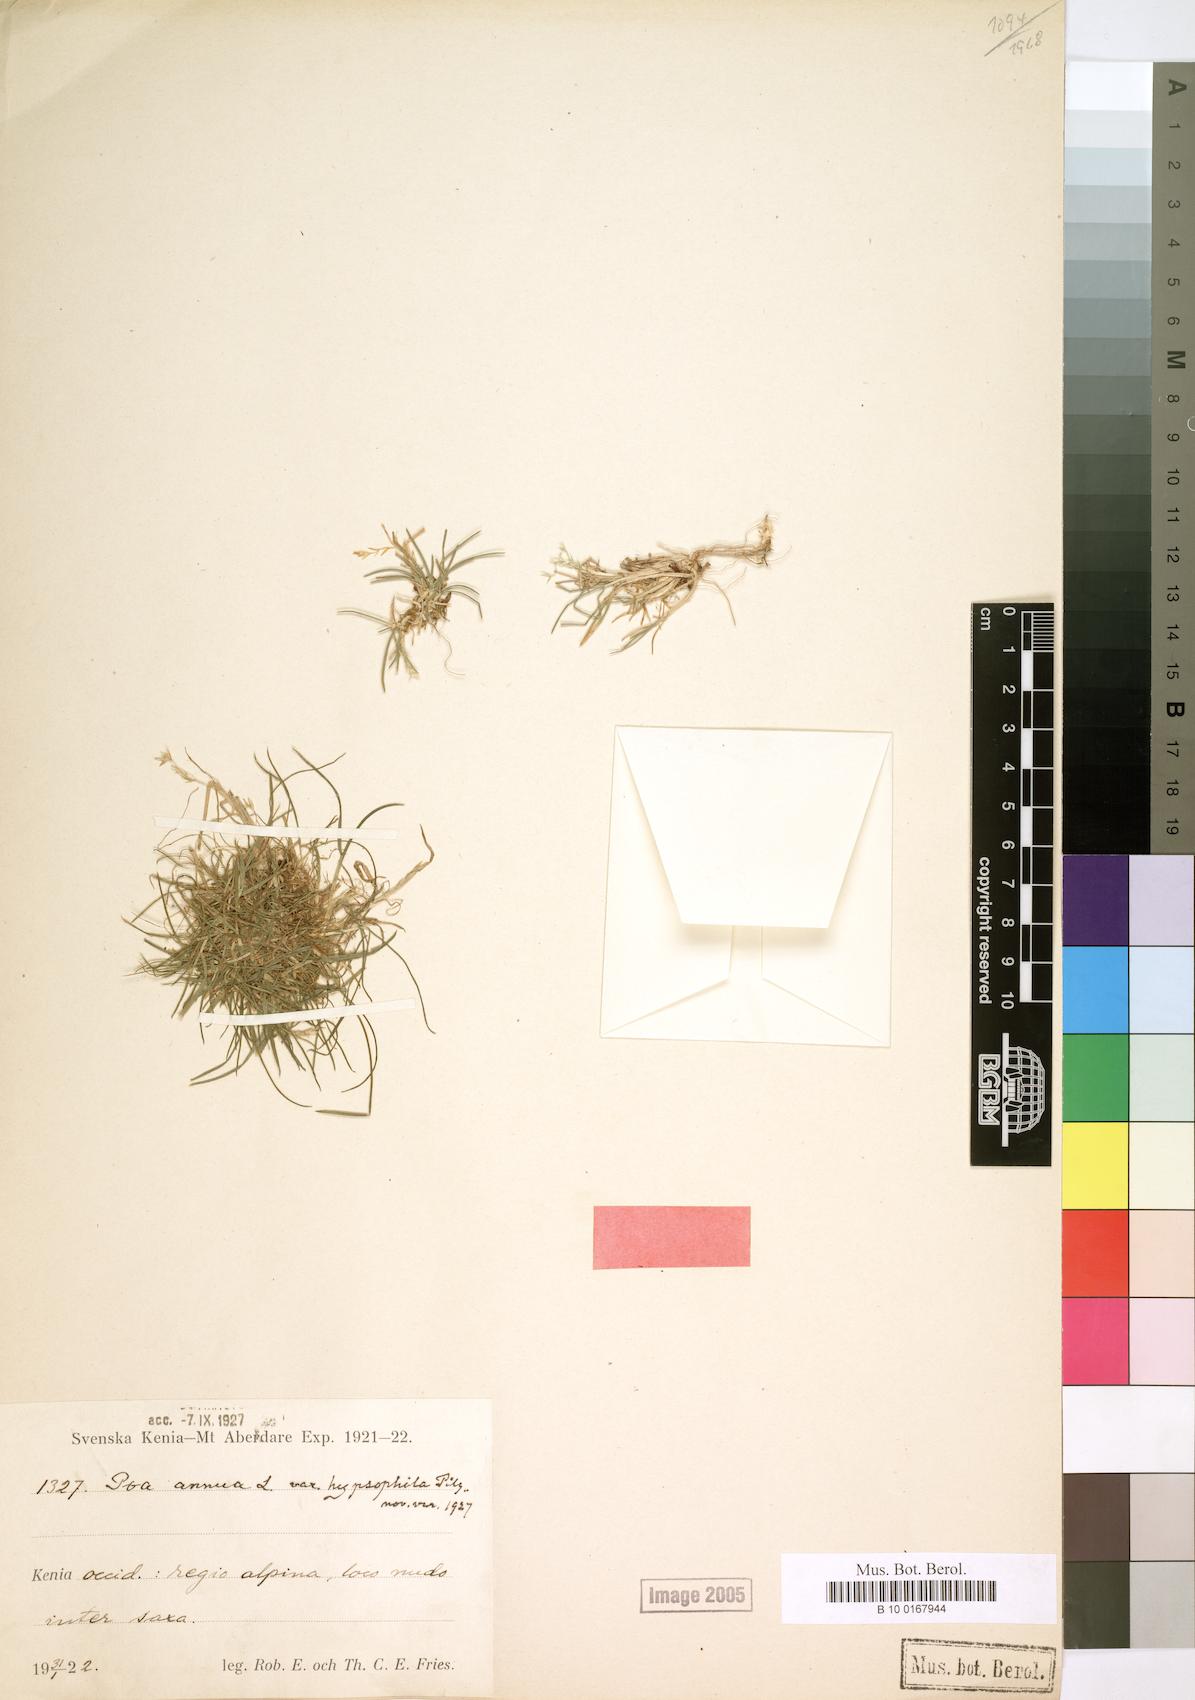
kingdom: Plantae
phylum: Tracheophyta
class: Liliopsida
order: Poales
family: Poaceae
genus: Poa
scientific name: Poa leptoclada
